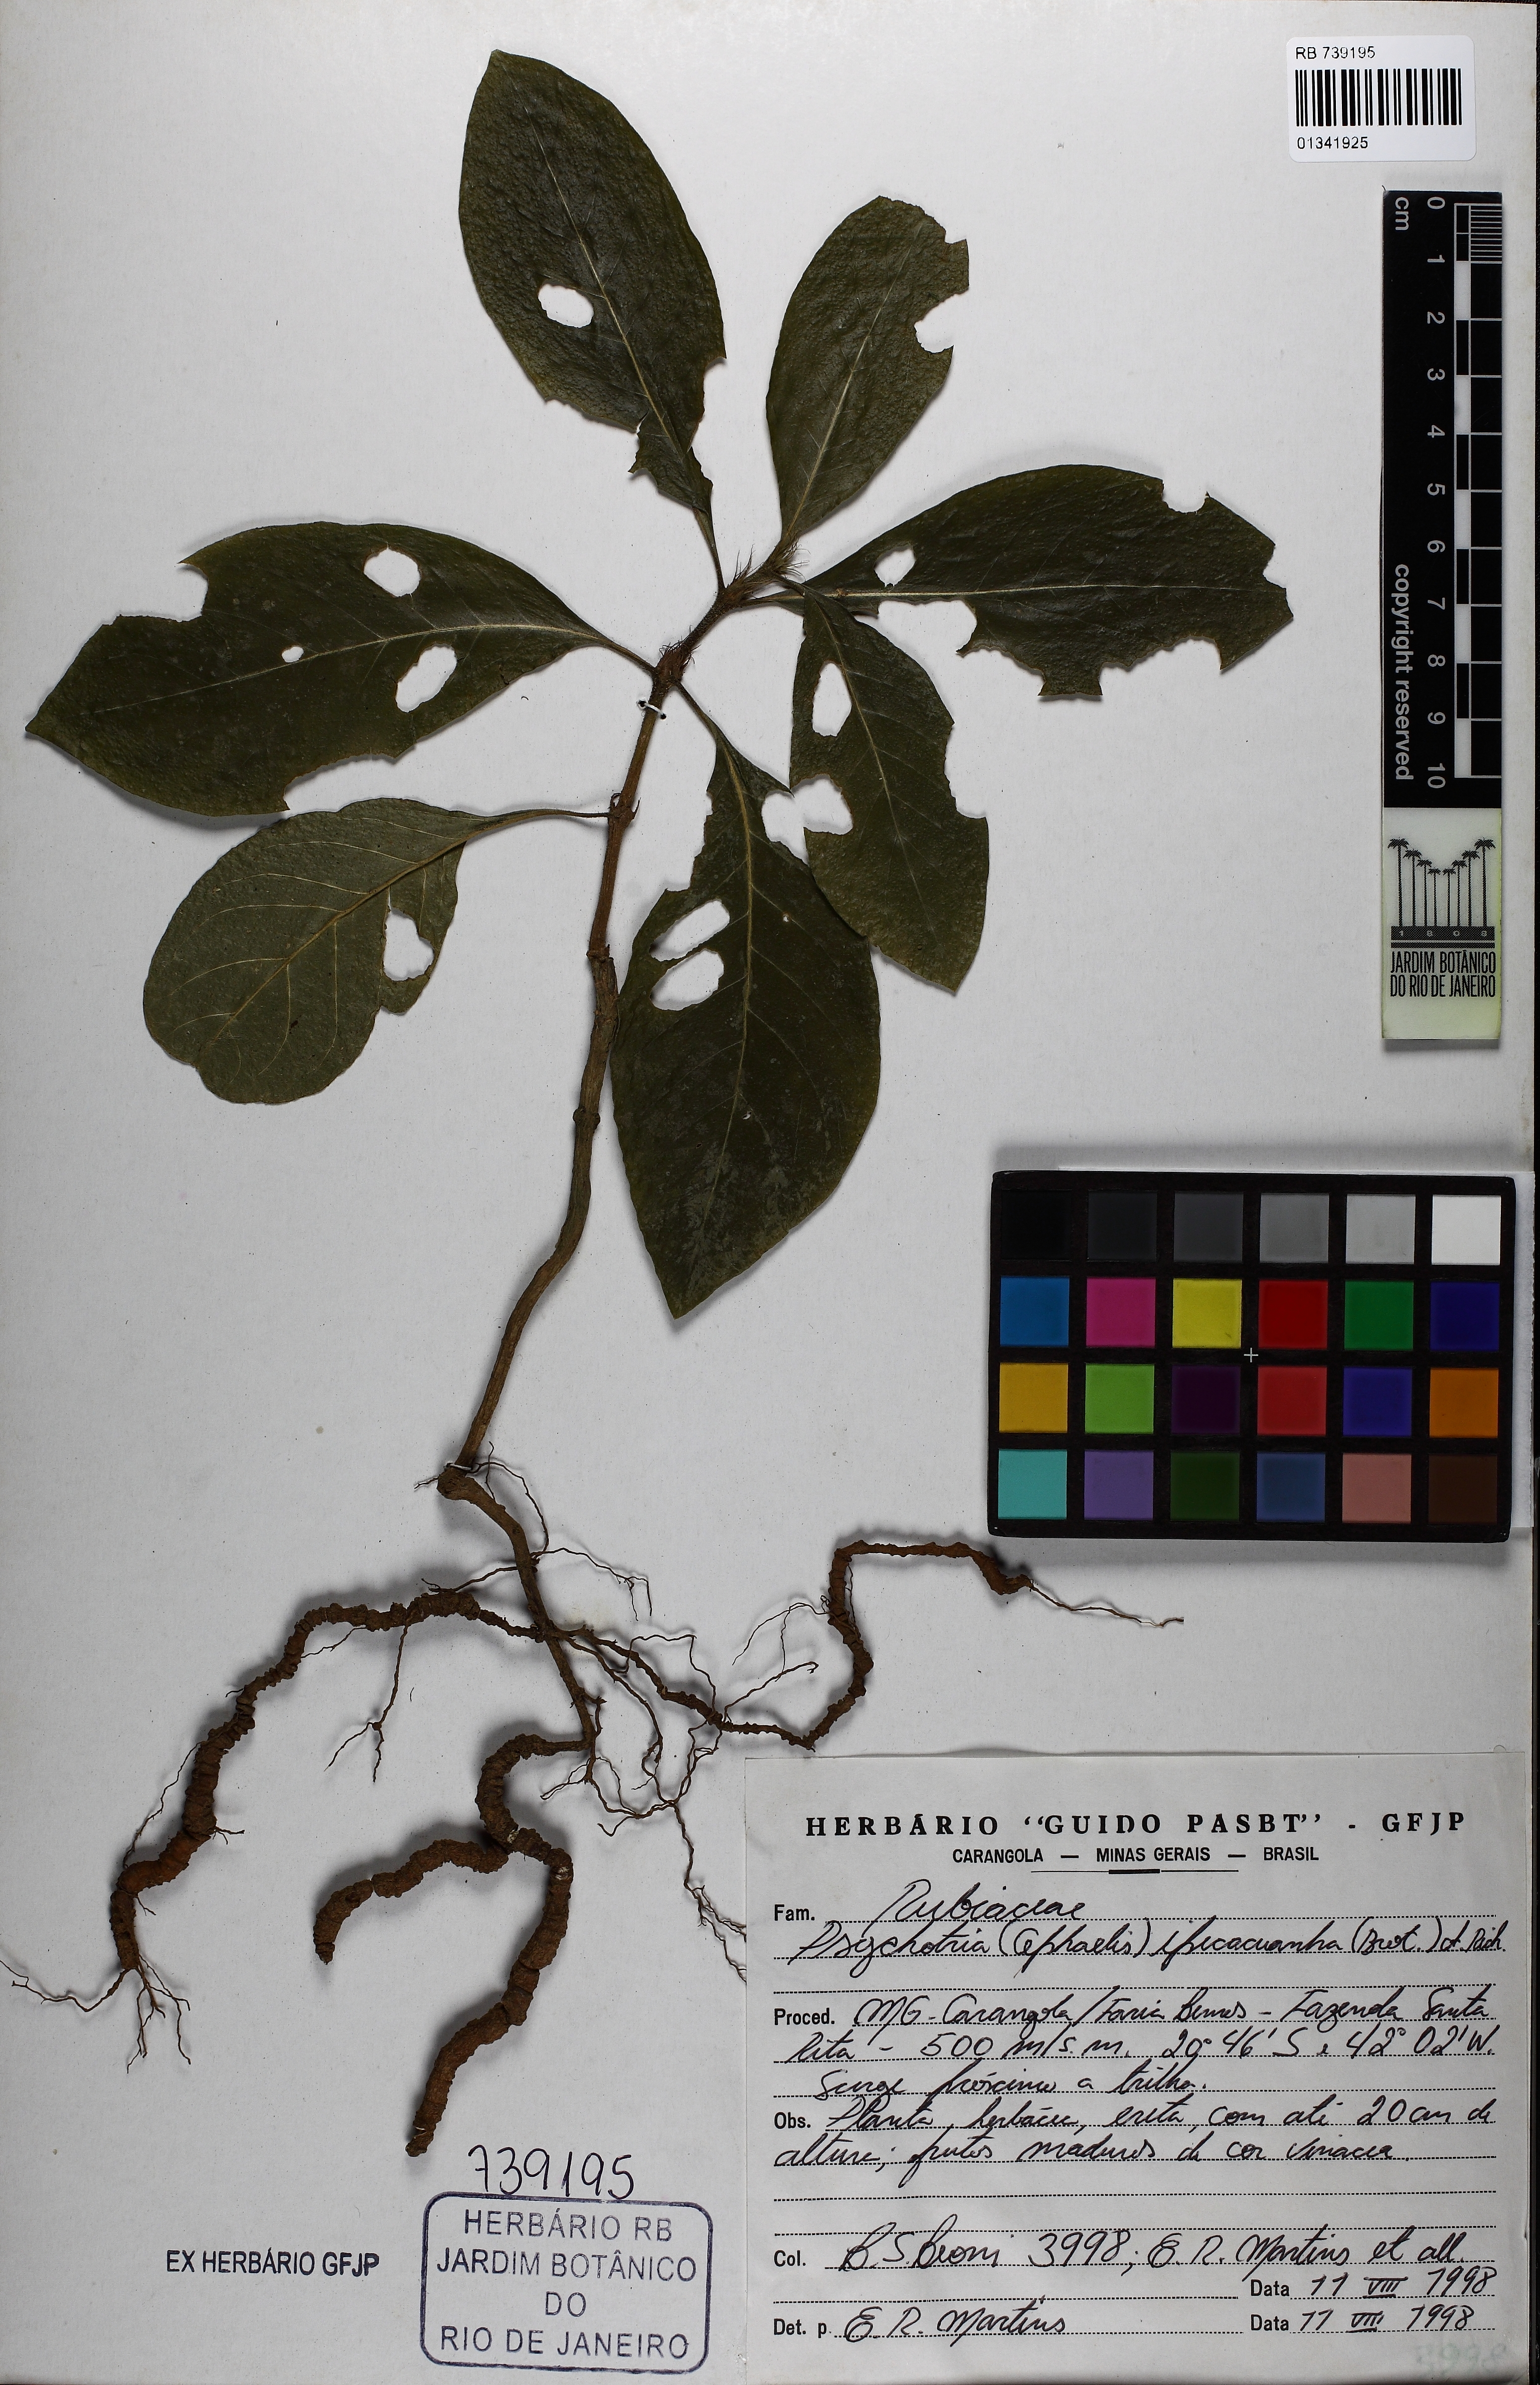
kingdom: Plantae
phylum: Tracheophyta
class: Magnoliopsida
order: Gentianales
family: Rubiaceae
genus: Carapichea
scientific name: Carapichea ipecacuanha
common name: Ipecac
